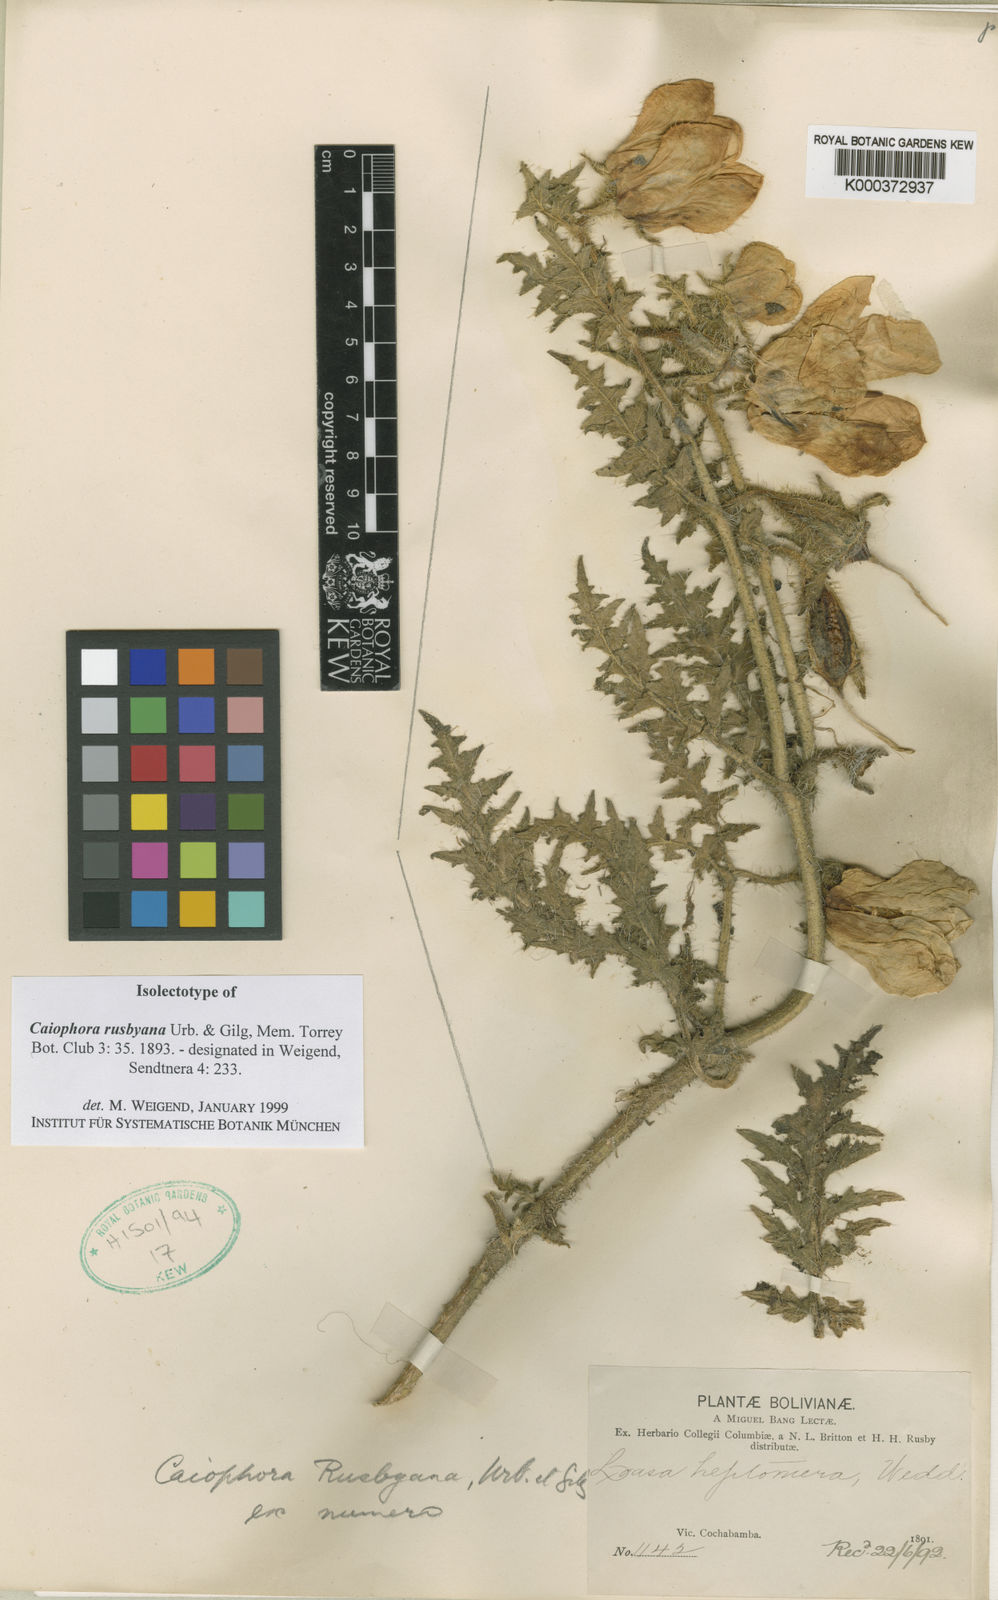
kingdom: Plantae
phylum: Tracheophyta
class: Magnoliopsida
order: Cornales
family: Loasaceae
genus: Caiophora
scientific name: Caiophora
